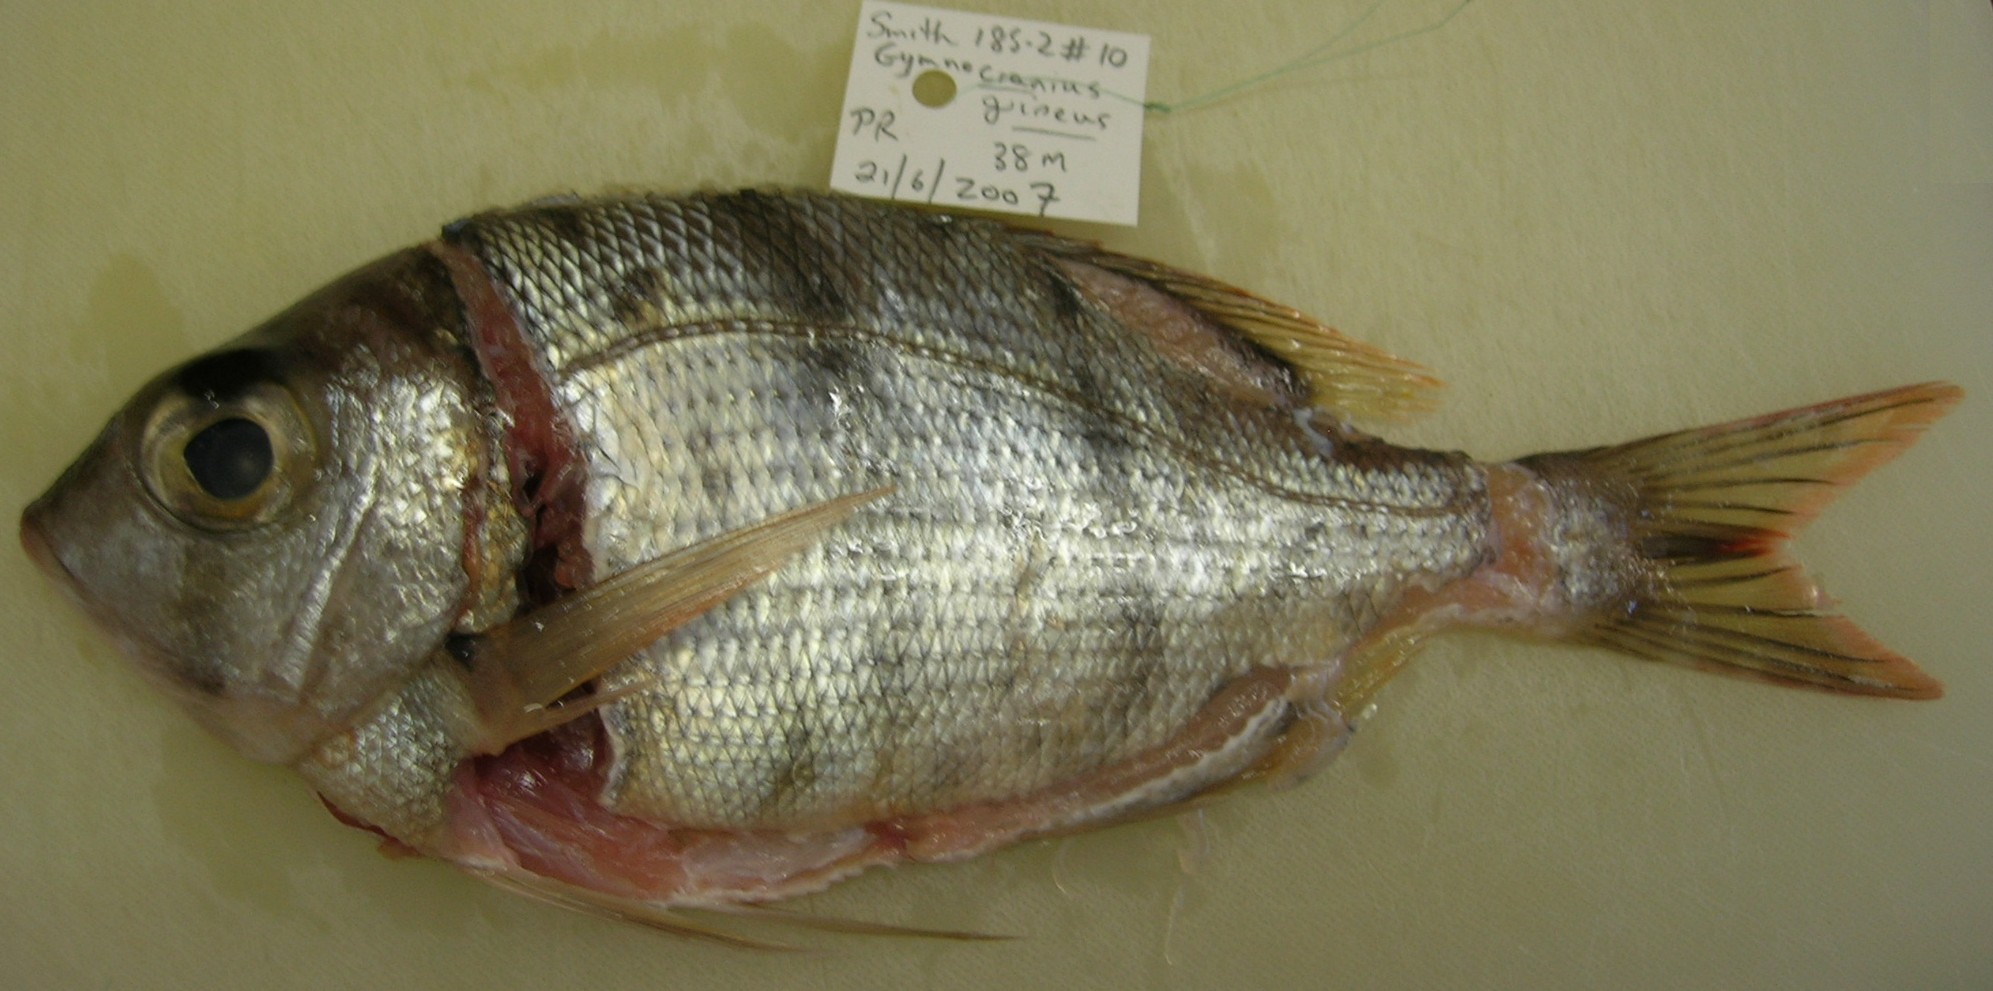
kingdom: Animalia
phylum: Chordata
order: Perciformes
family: Lethrinidae
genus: Gymnocranius
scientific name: Gymnocranius griseus
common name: Grey emperor
